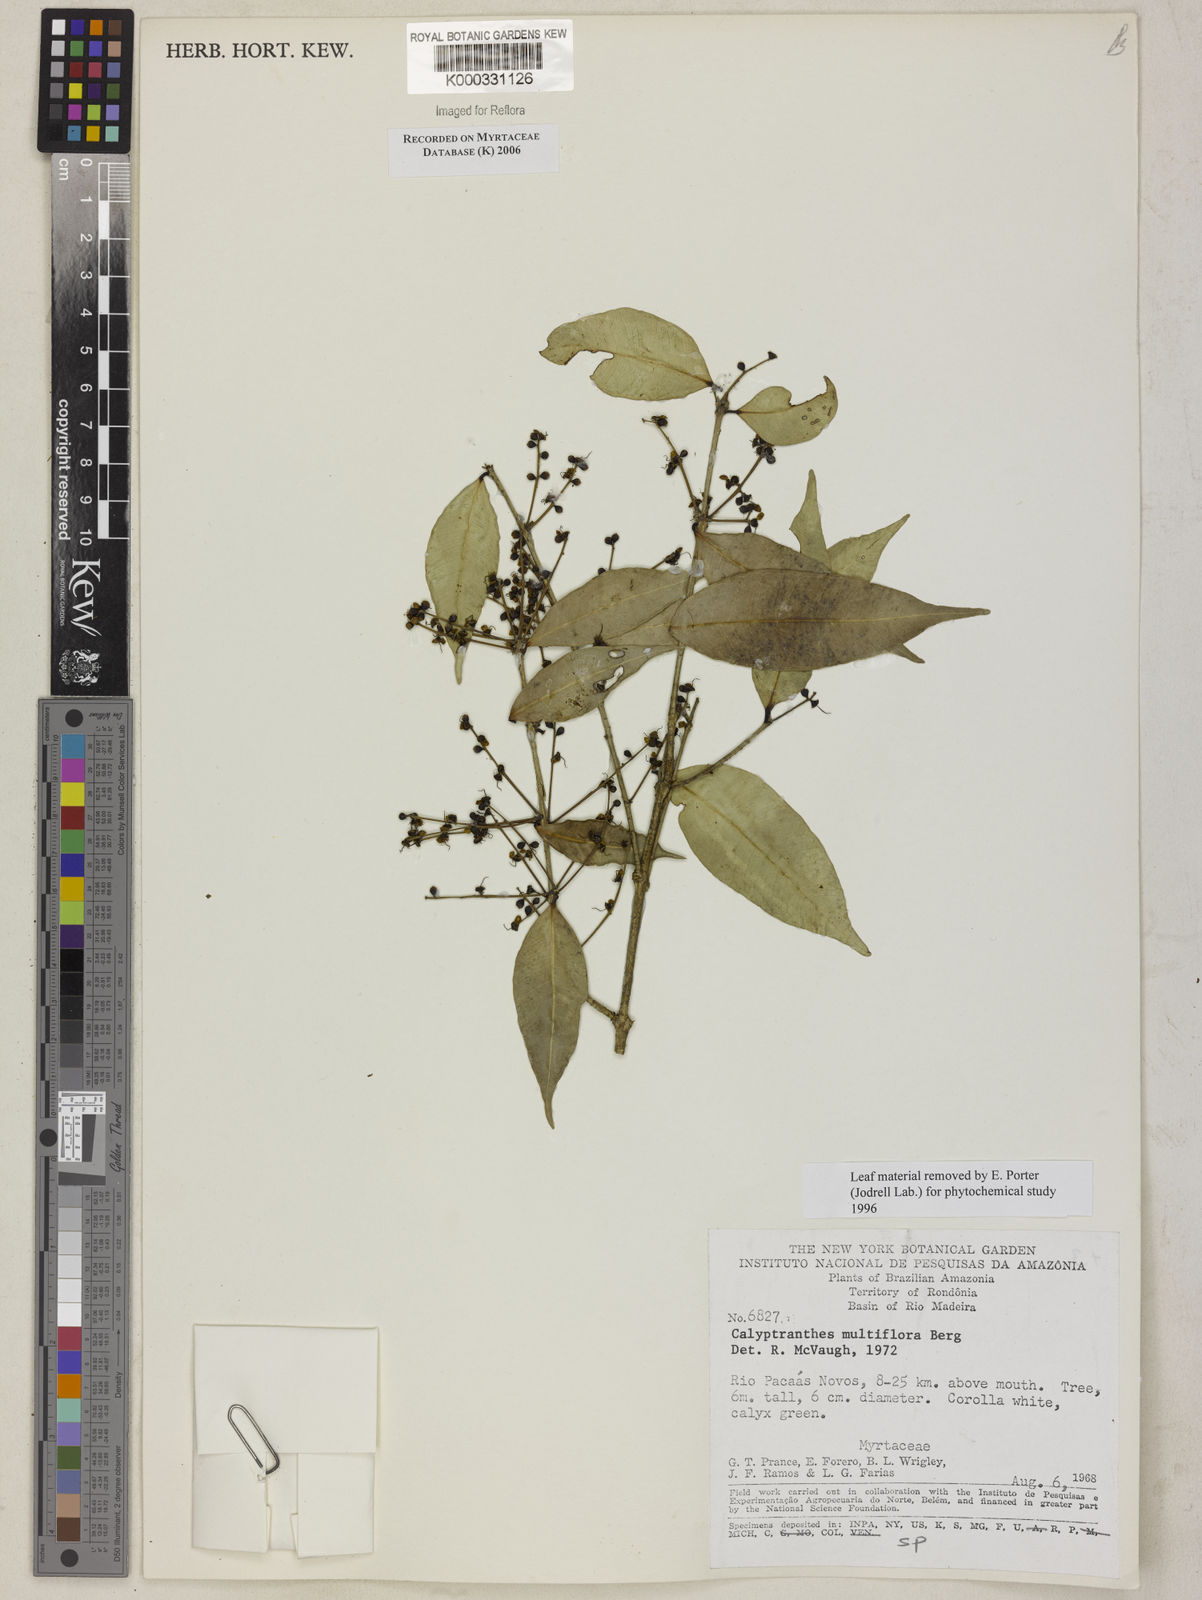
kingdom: Plantae
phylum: Tracheophyta
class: Magnoliopsida
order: Myrtales
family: Myrtaceae
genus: Myrcia
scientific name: Myrcia aulomyrcioides
